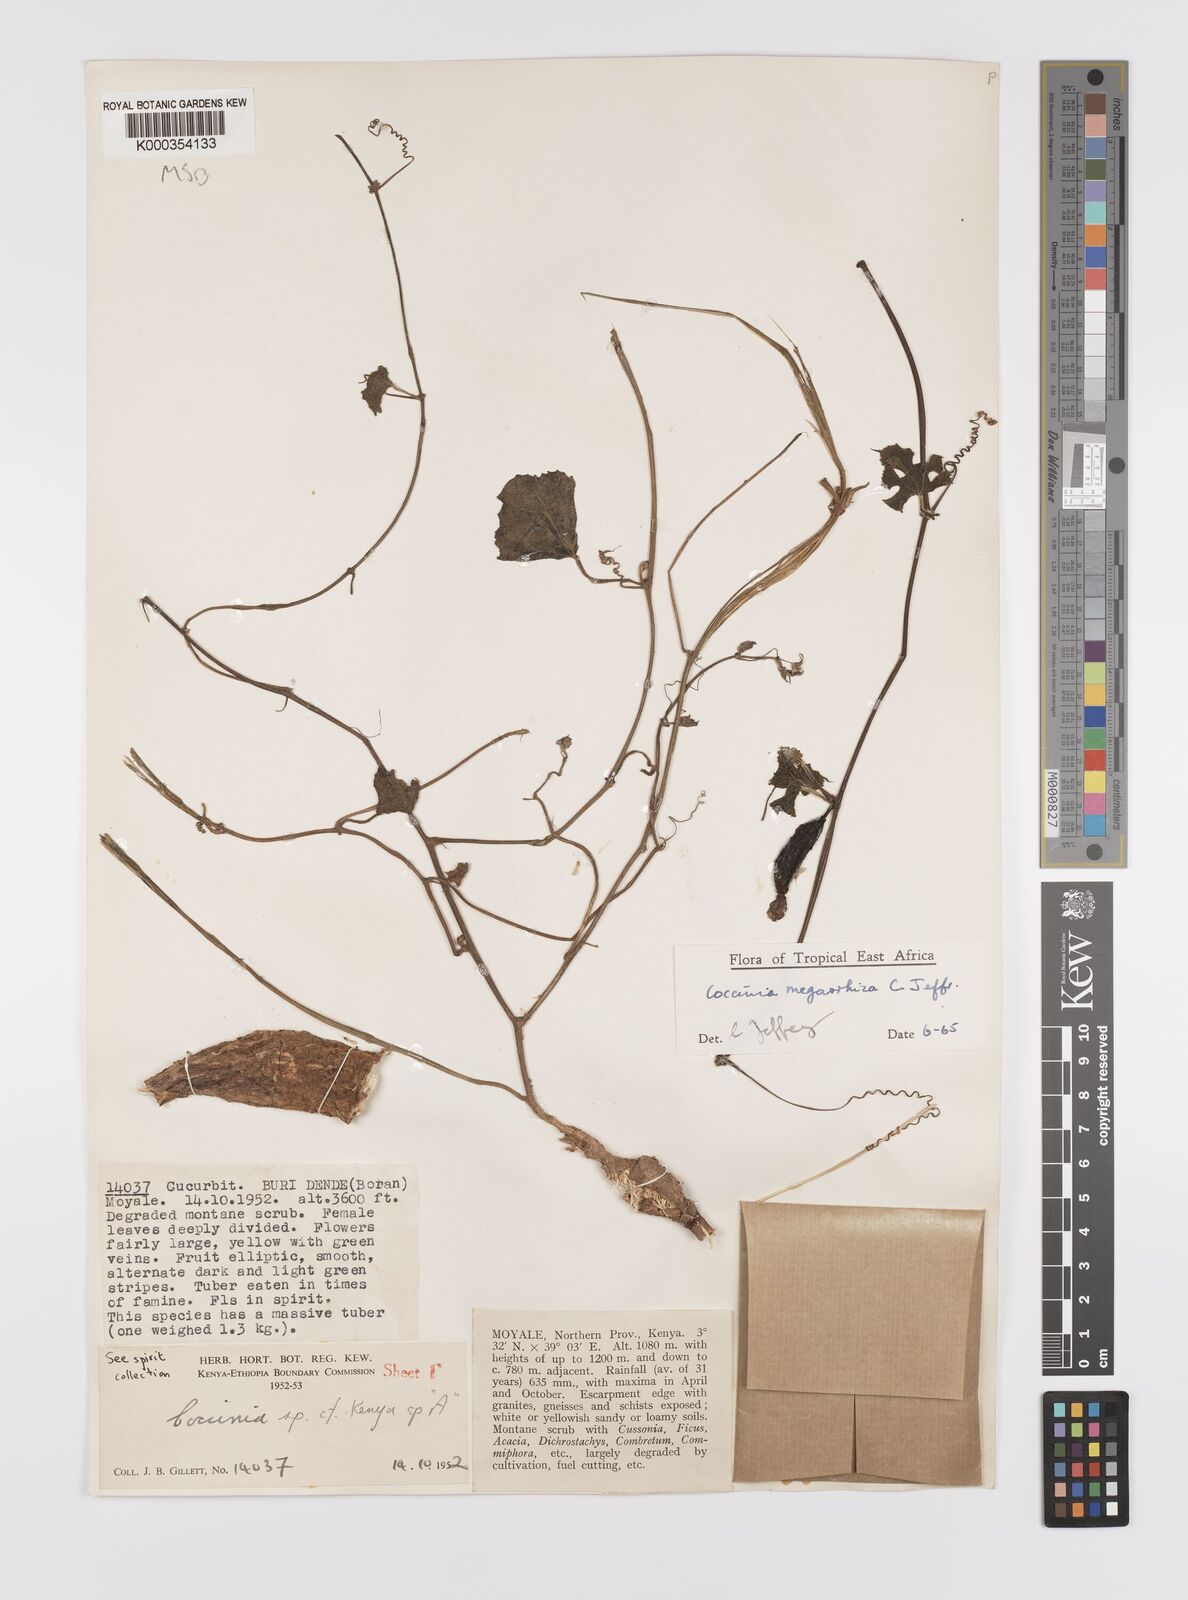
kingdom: Plantae
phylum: Tracheophyta
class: Magnoliopsida
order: Cucurbitales
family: Cucurbitaceae
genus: Coccinia
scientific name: Coccinia megarrhiza
